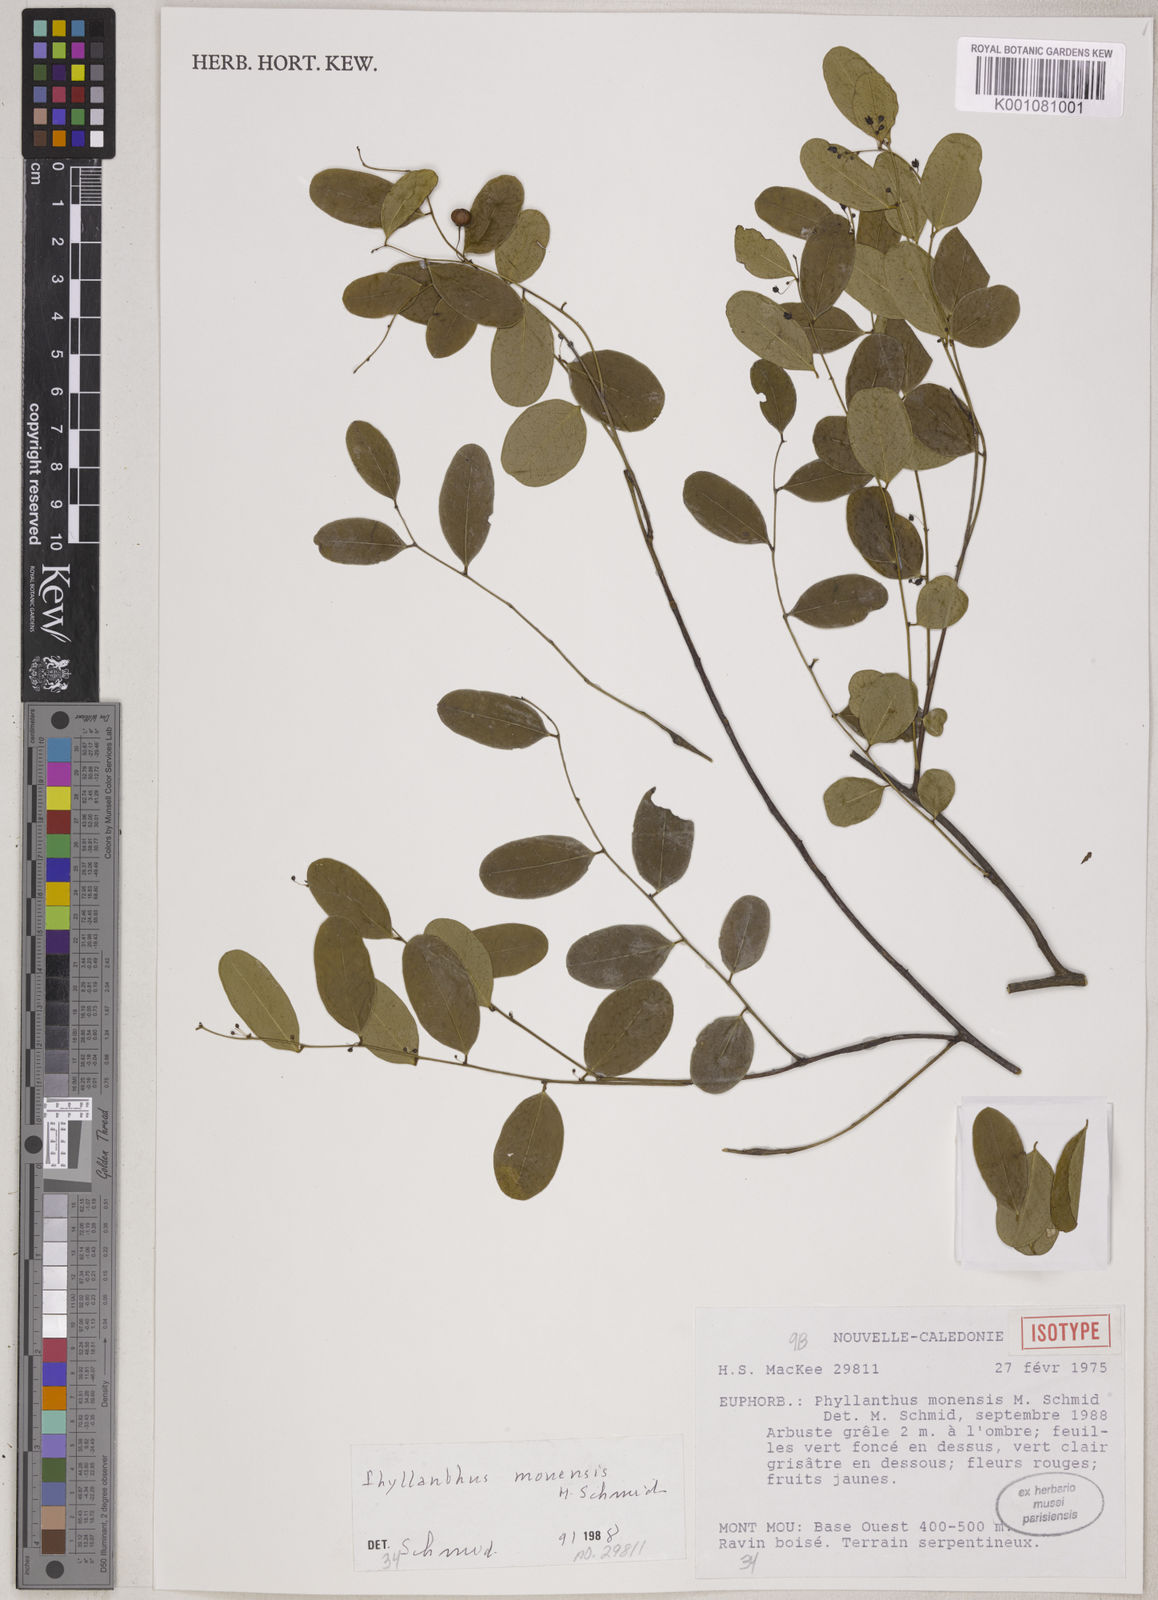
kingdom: Plantae
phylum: Tracheophyta
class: Magnoliopsida
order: Malpighiales
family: Phyllanthaceae
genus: Phyllanthus
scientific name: Phyllanthus mouensis
